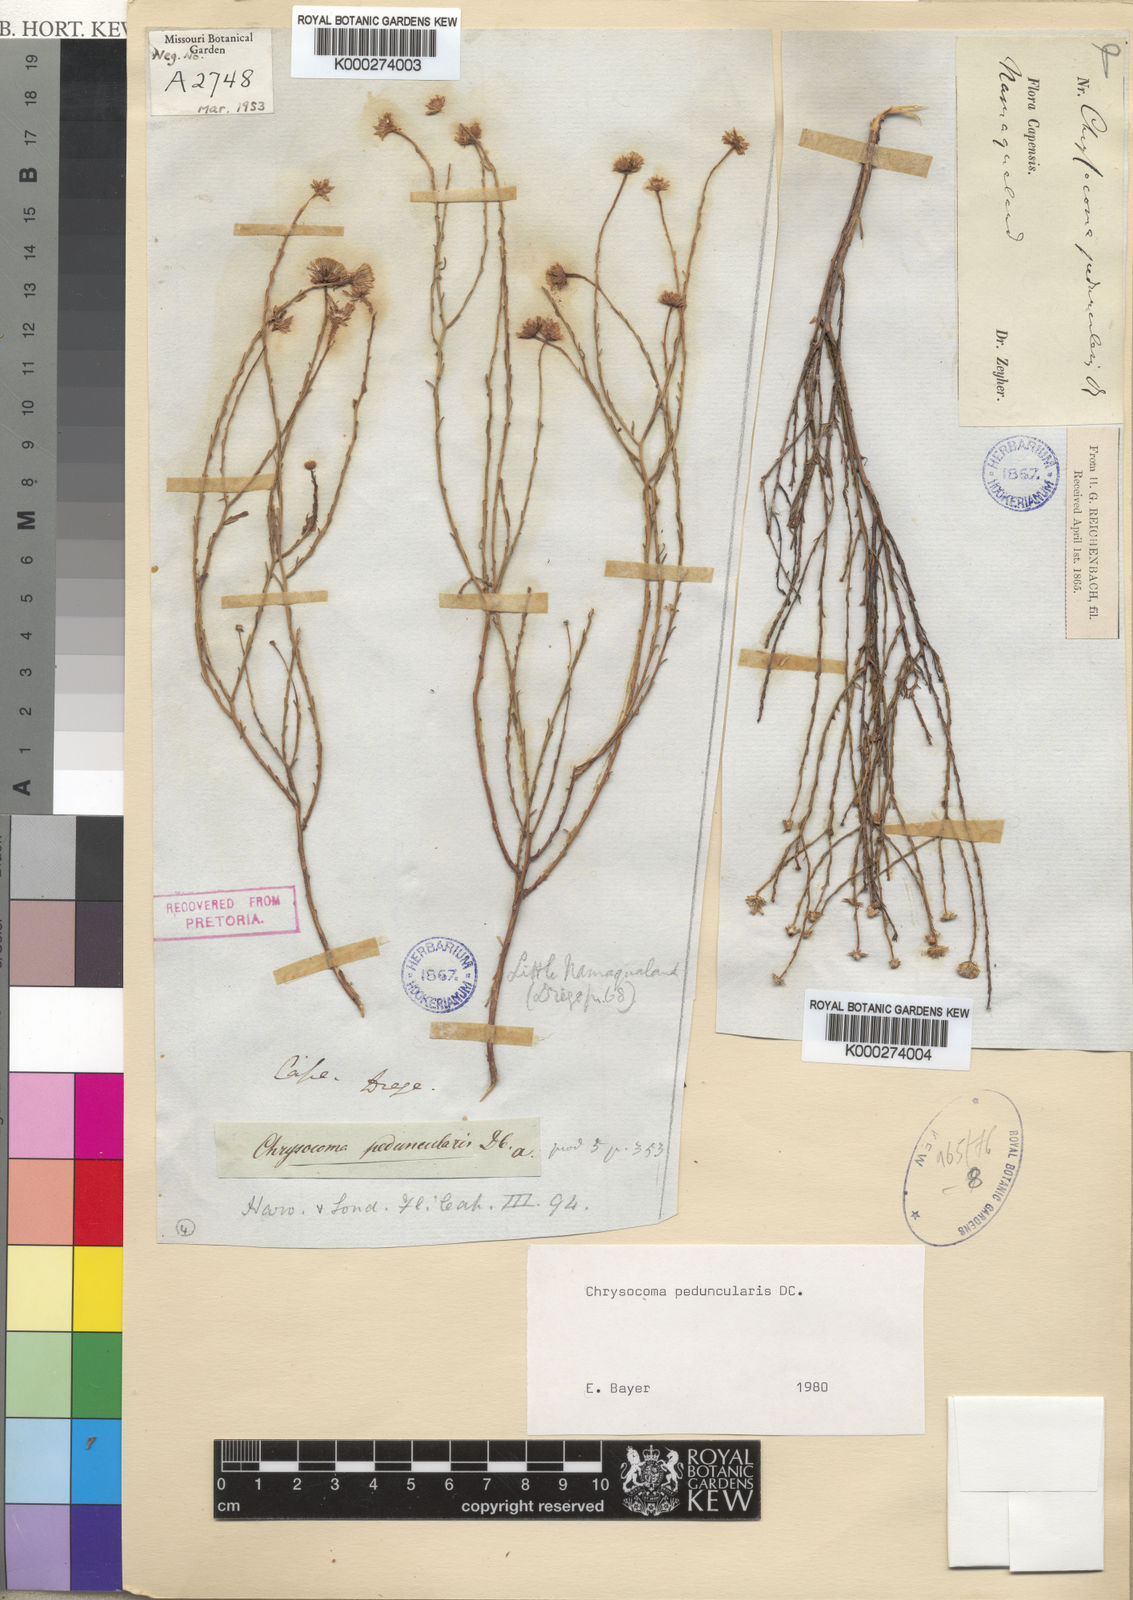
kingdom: Plantae
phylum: Tracheophyta
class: Magnoliopsida
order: Asterales
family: Asteraceae
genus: Chrysocoma
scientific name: Chrysocoma microphylla
